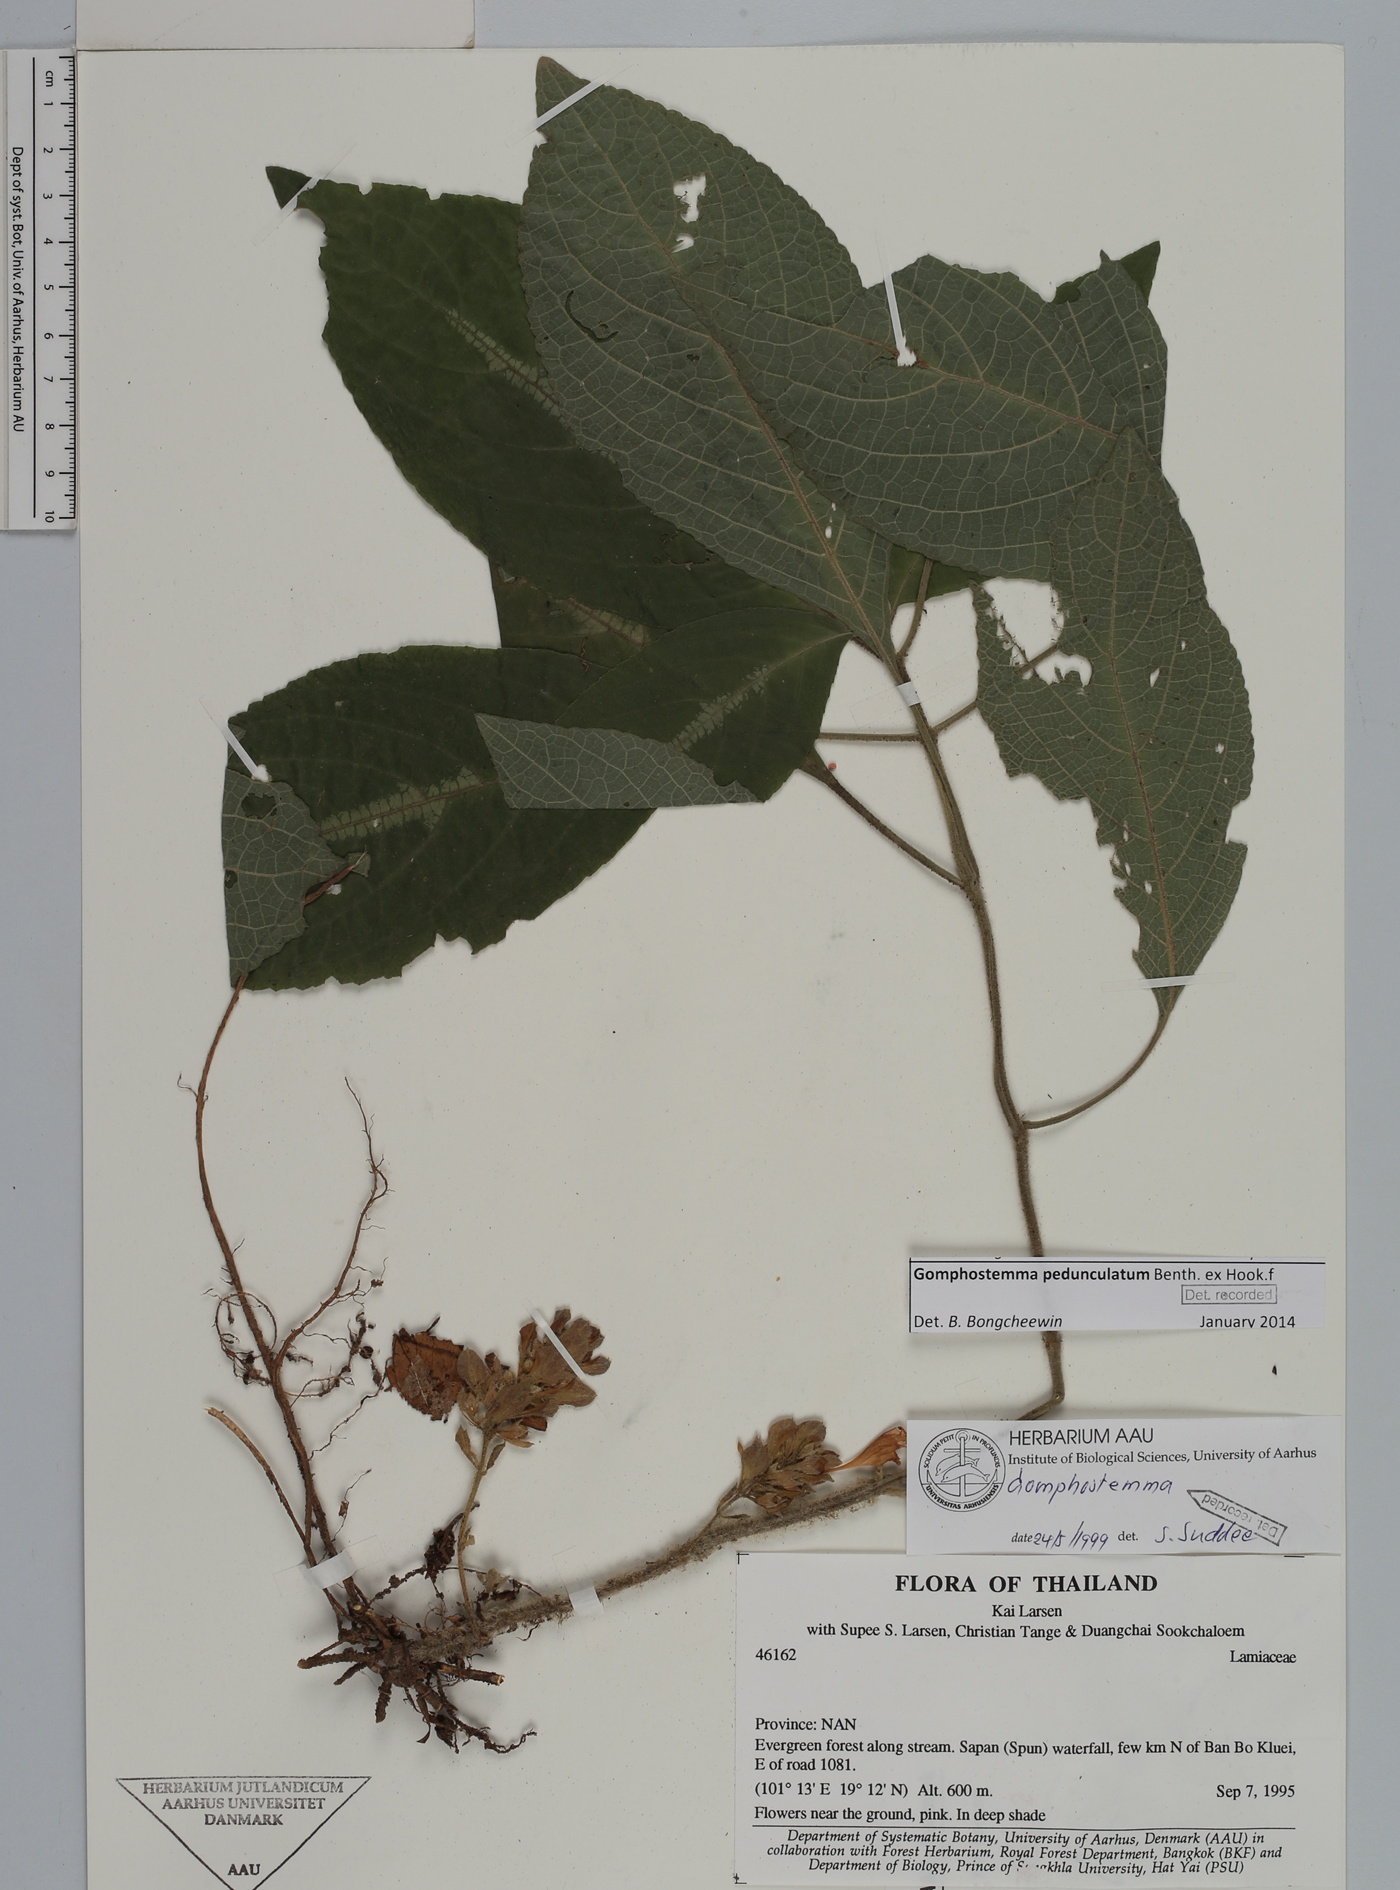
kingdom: Plantae
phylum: Tracheophyta
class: Magnoliopsida
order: Lamiales
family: Lamiaceae
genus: Gomphostemma
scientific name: Gomphostemma pedunculatum
